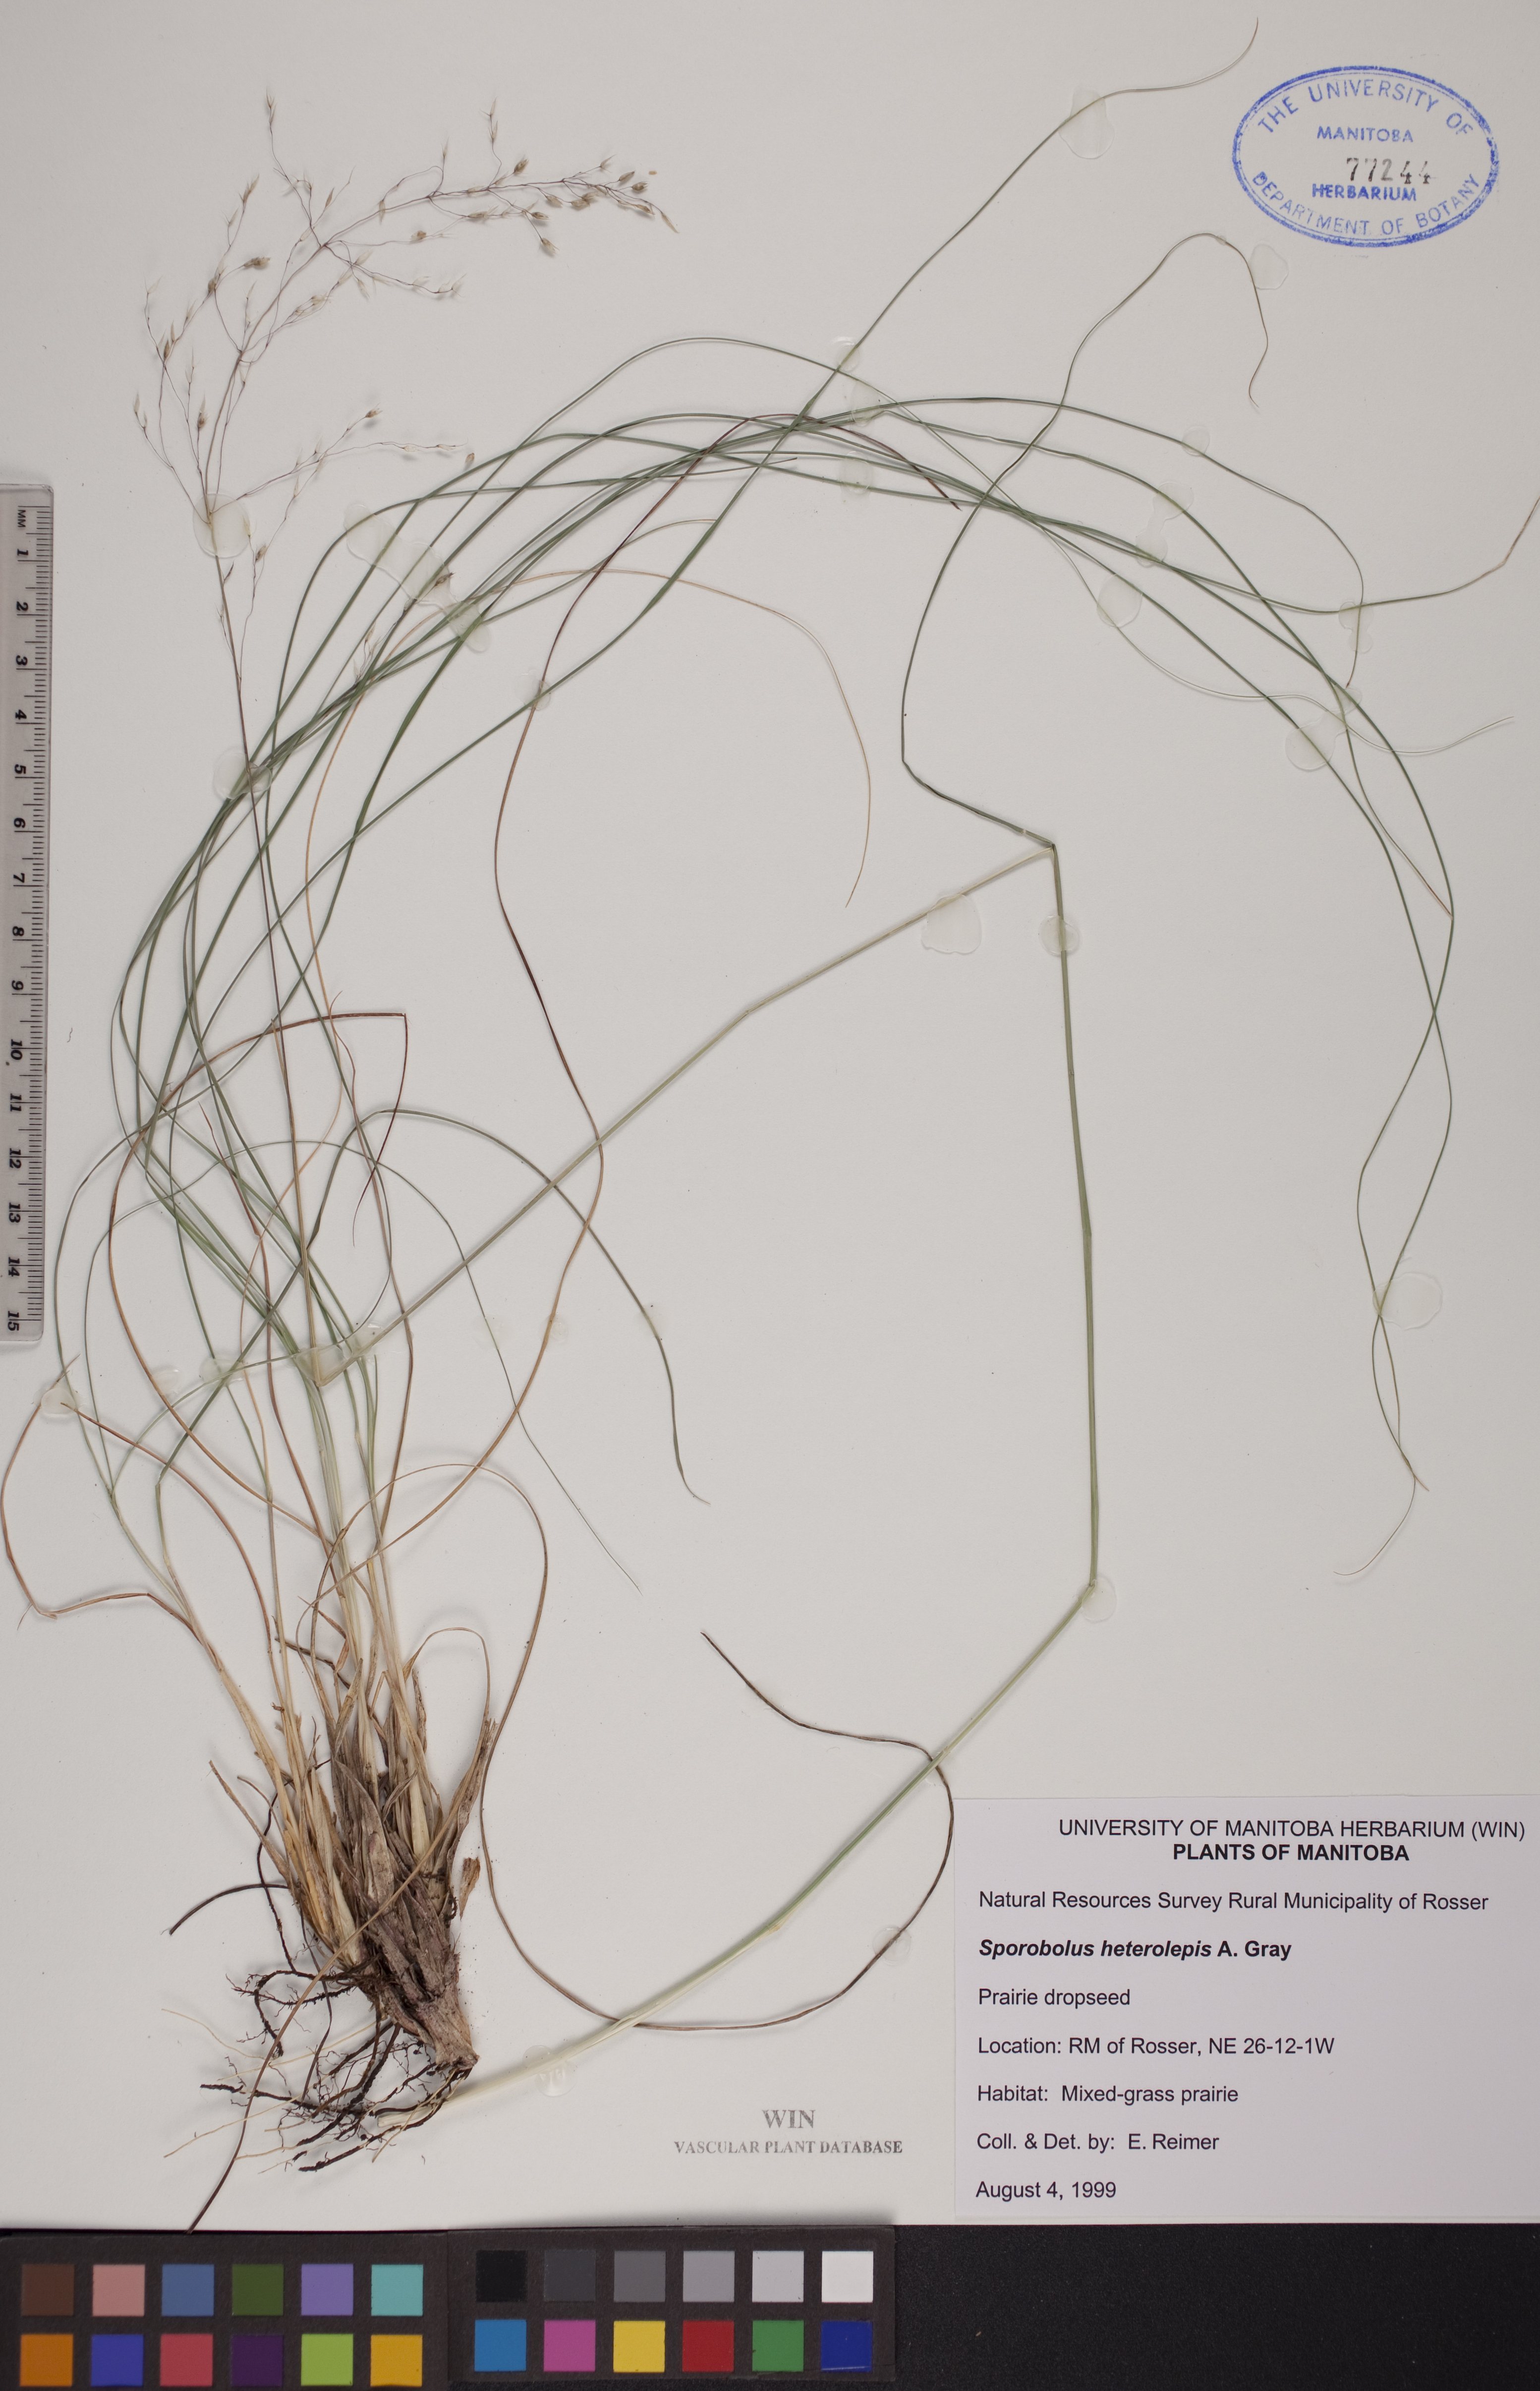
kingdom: Plantae
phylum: Tracheophyta
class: Liliopsida
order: Poales
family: Poaceae
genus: Sporobolus
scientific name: Sporobolus heterolepis
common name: Prairie dropseed
